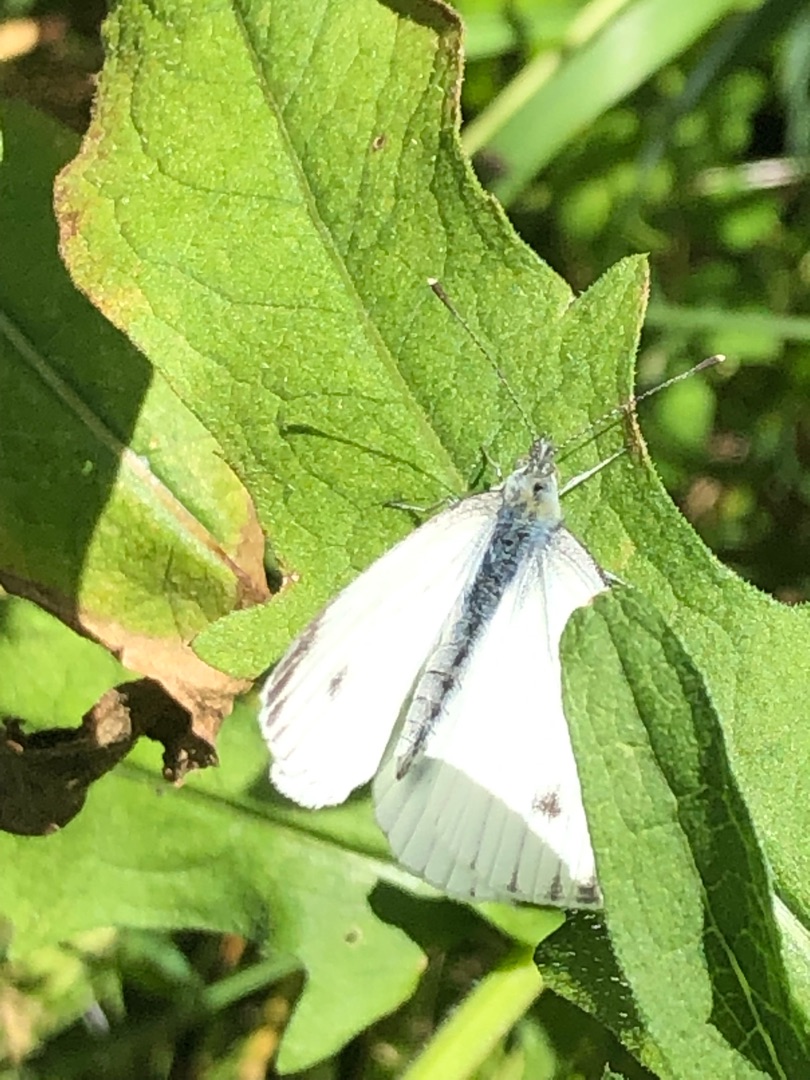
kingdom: Animalia
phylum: Arthropoda
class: Insecta
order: Lepidoptera
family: Pieridae
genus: Pieris
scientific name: Pieris napi
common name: Grønåret kålsommerfugl
